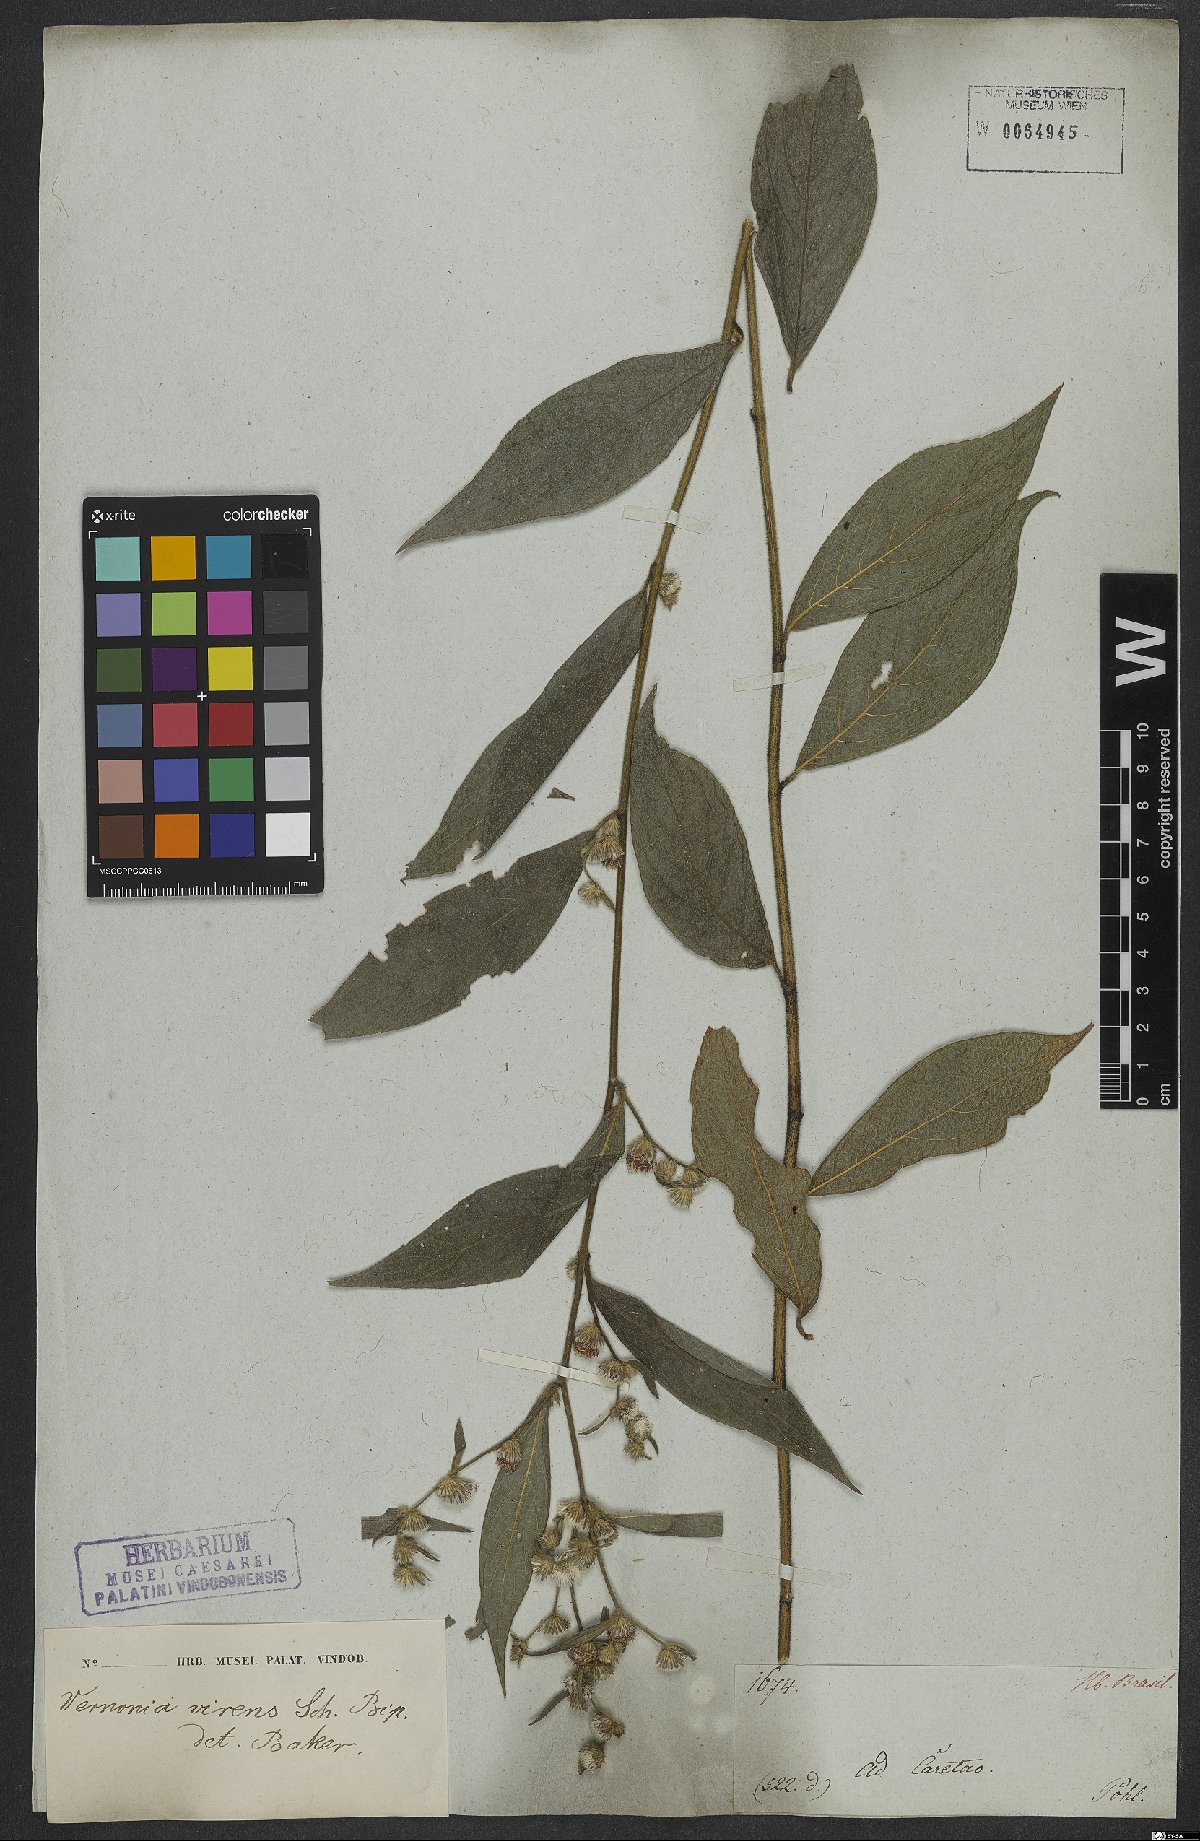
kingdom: Plantae
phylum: Tracheophyta
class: Magnoliopsida
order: Asterales
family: Asteraceae
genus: Lepidaploa
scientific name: Lepidaploa argyropappa
